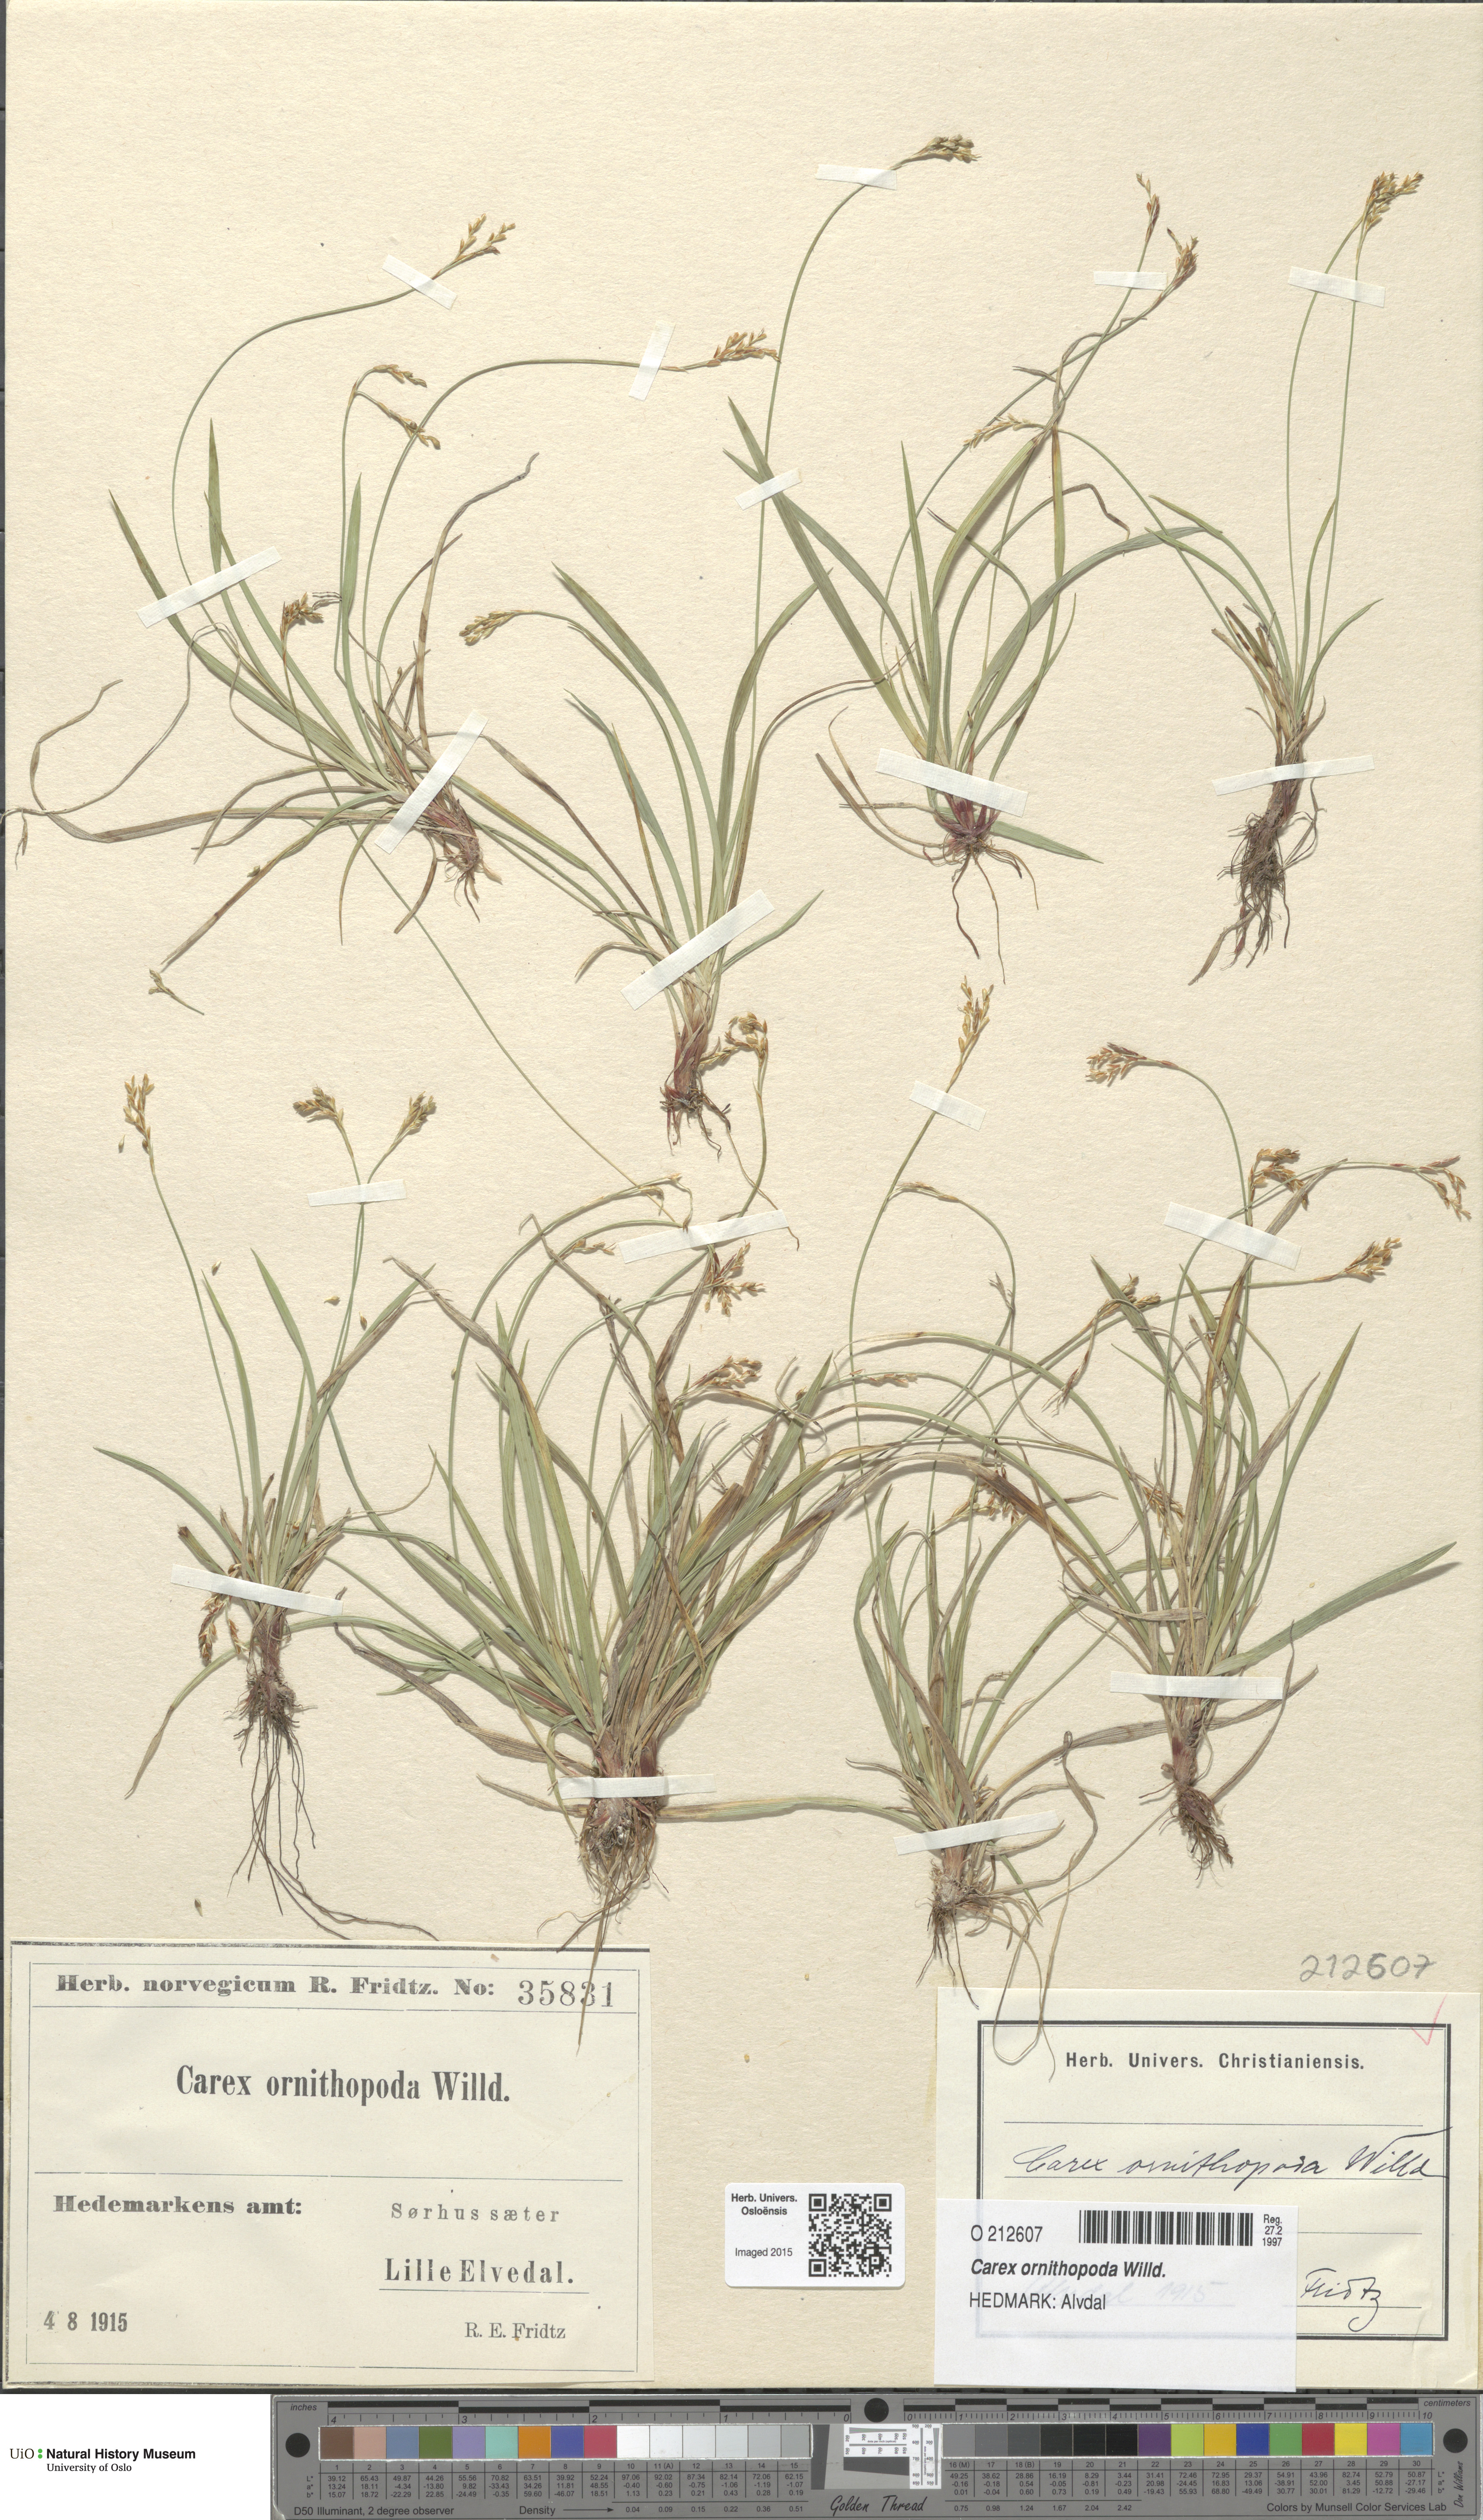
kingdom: Plantae
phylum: Tracheophyta
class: Liliopsida
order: Poales
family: Cyperaceae
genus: Carex
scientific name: Carex ornithopoda
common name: Bird's-foot sedge
